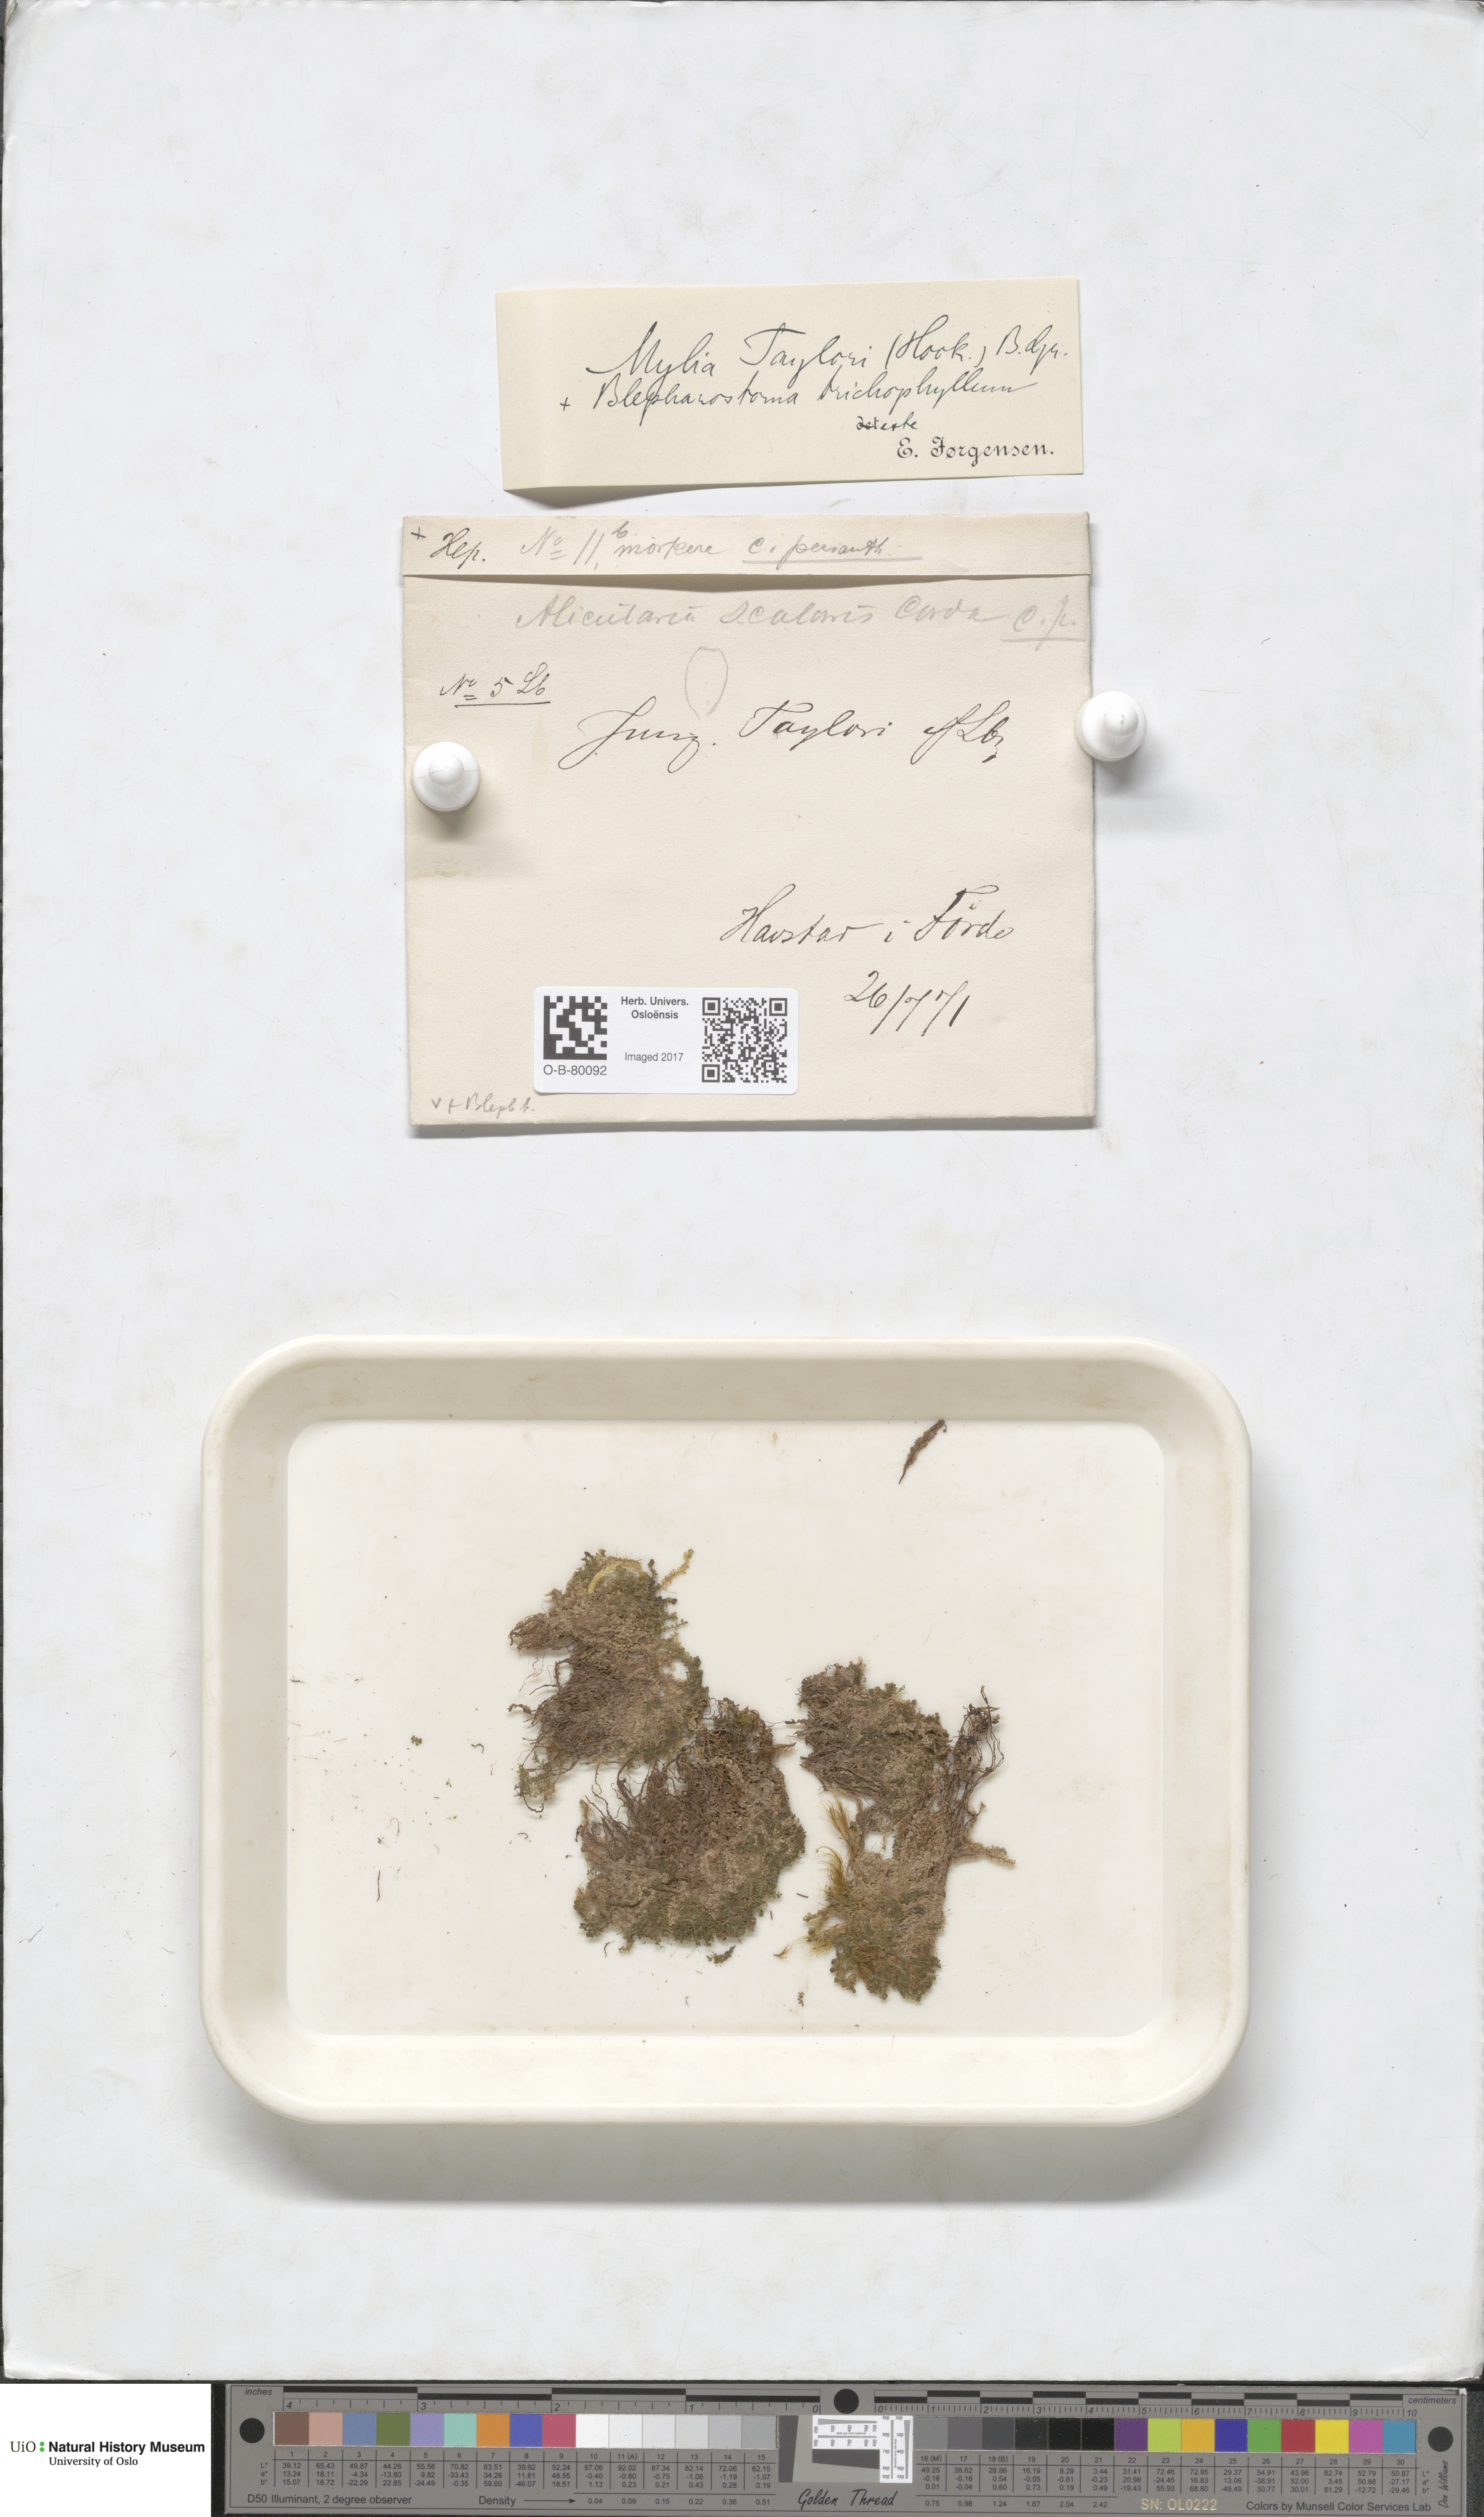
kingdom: Plantae
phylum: Marchantiophyta
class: Jungermanniopsida
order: Jungermanniales
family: Myliaceae
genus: Mylia
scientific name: Mylia taylorii
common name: Taylor s flapwort
